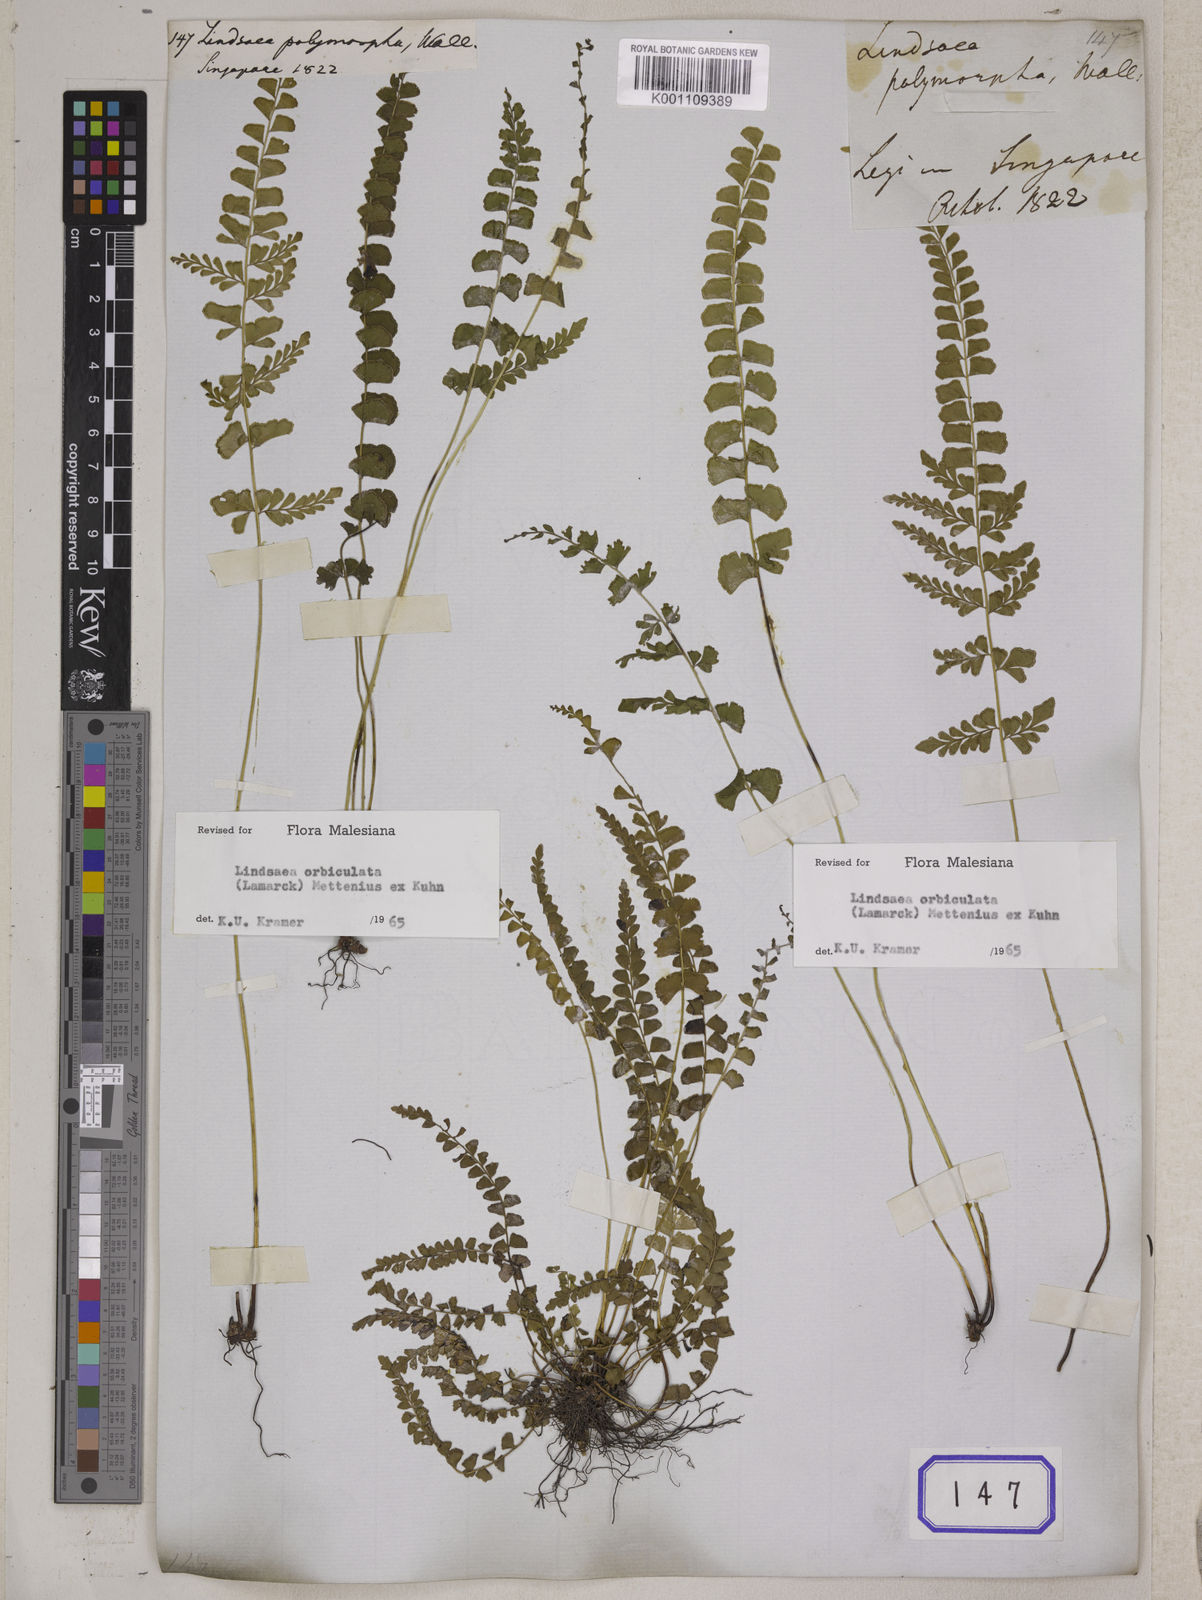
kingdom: Plantae
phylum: Tracheophyta
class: Polypodiopsida
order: Polypodiales
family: Lindsaeaceae
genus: Lindsaea
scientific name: Lindsaea orbiculata
